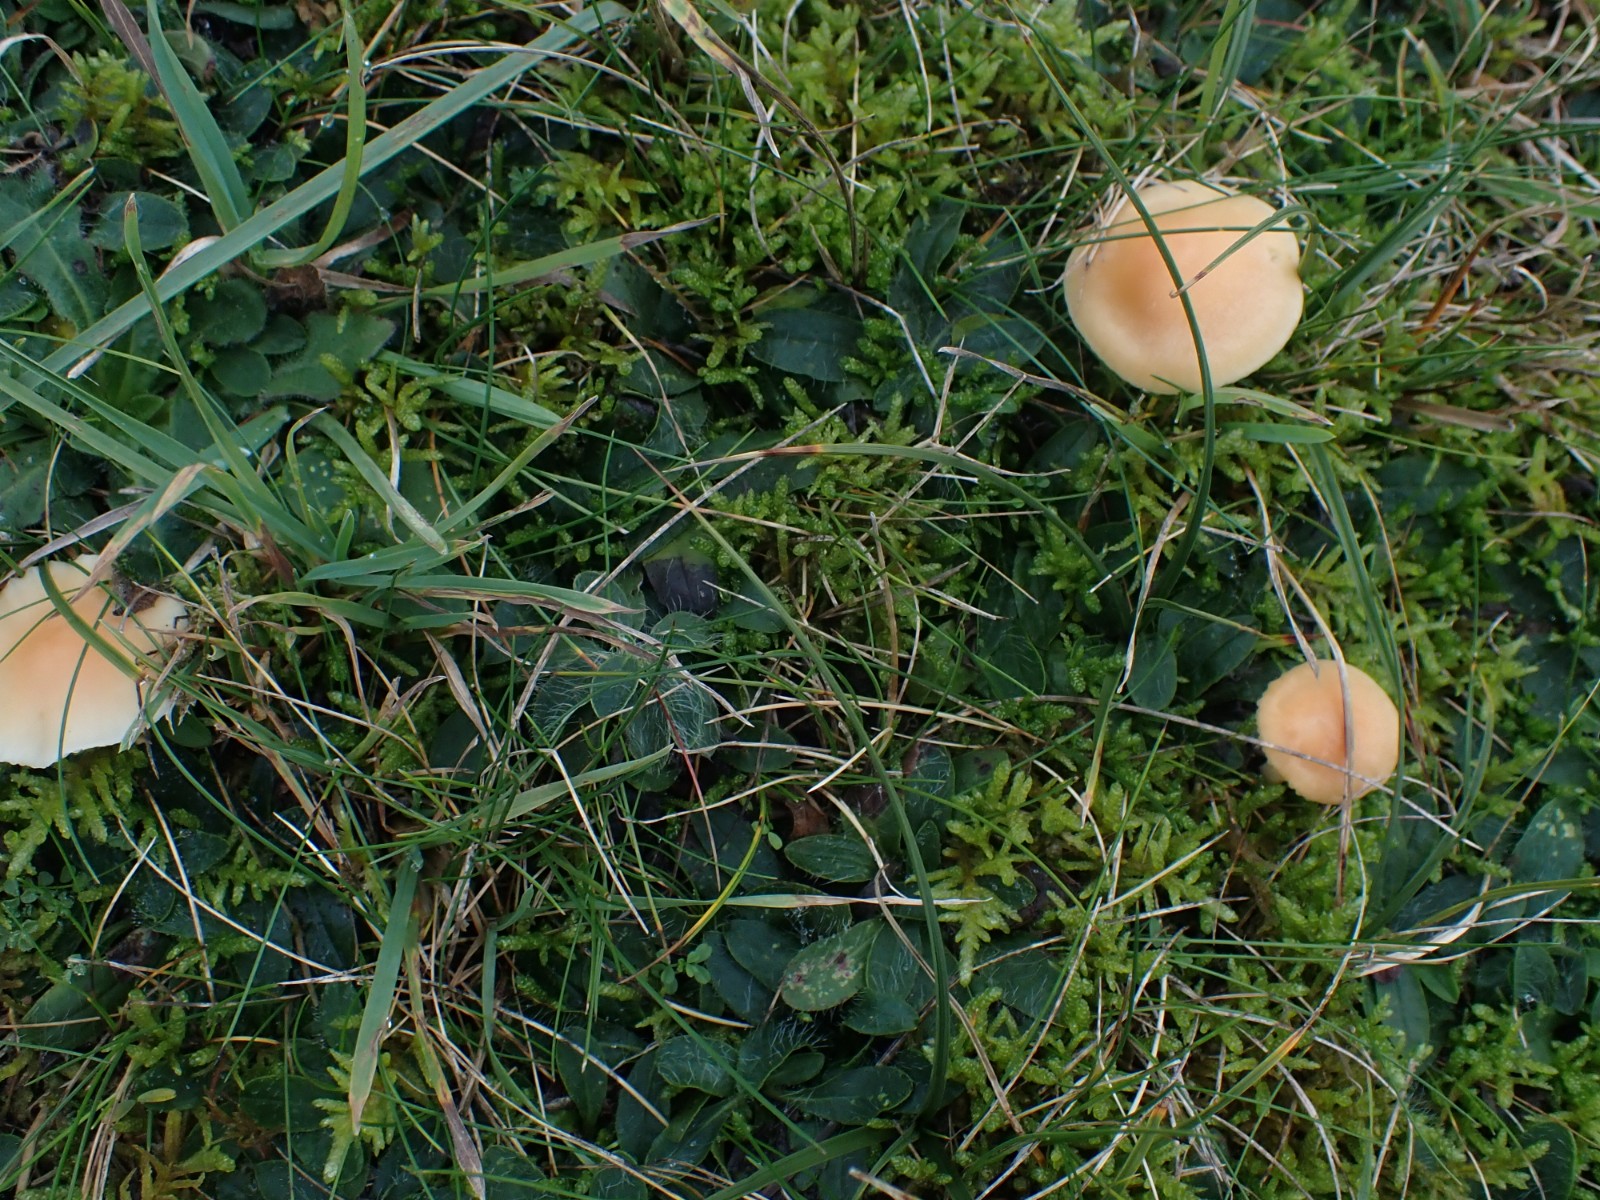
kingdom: Fungi
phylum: Basidiomycota
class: Agaricomycetes
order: Agaricales
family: Hygrophoraceae
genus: Cuphophyllus
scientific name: Cuphophyllus pratensis
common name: eng-vokshat
